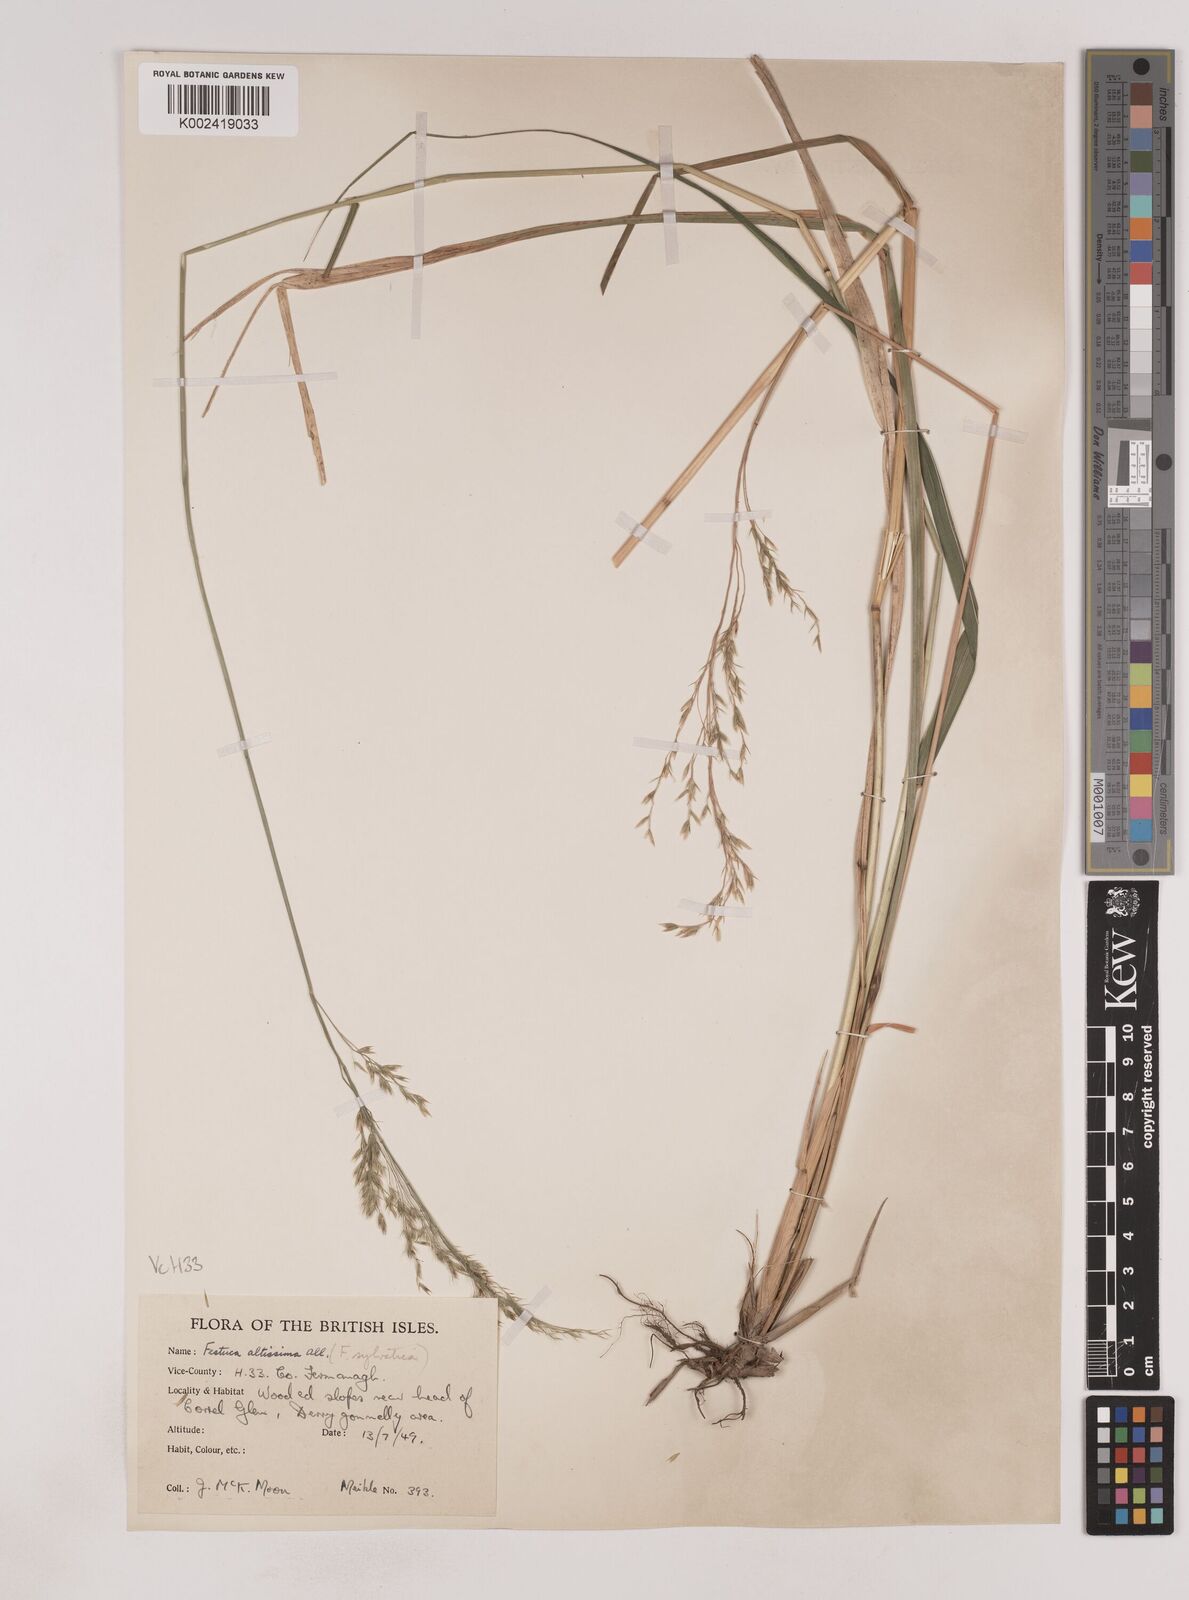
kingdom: Plantae
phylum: Tracheophyta
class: Liliopsida
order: Poales
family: Poaceae
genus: Festuca
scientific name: Festuca drymeja
